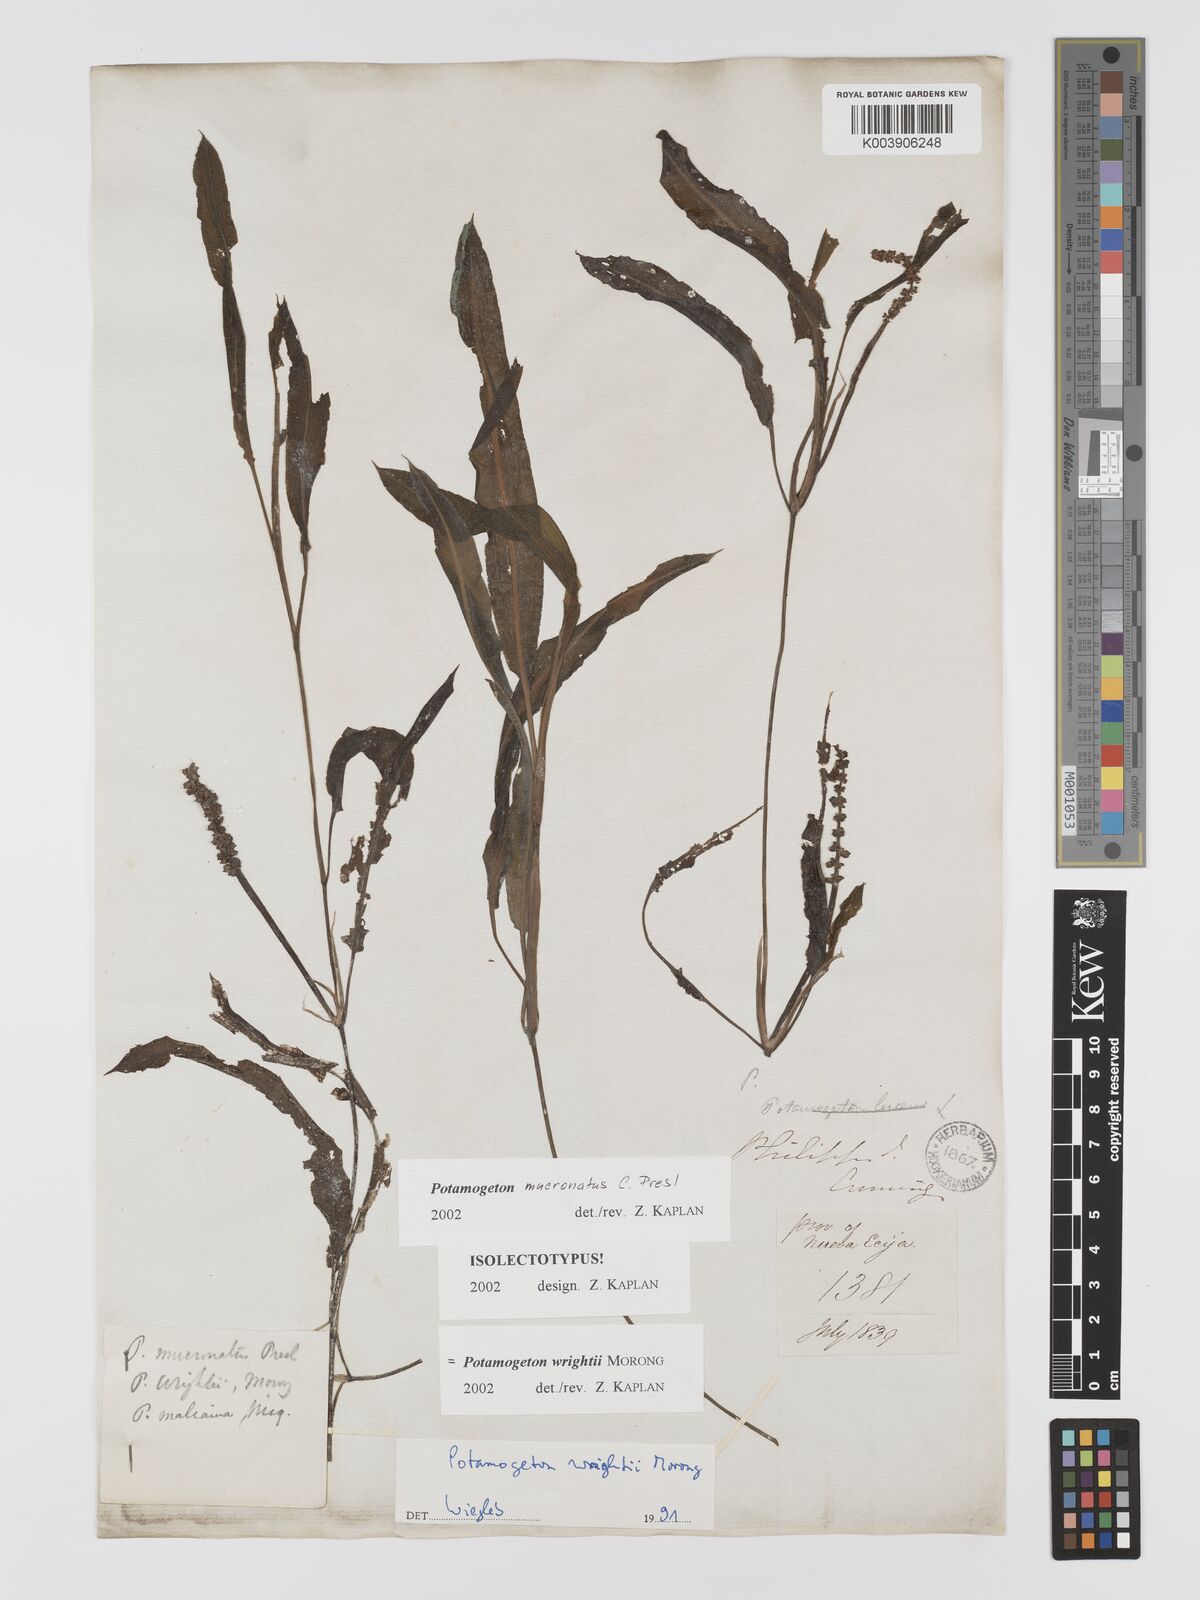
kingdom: Plantae
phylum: Tracheophyta
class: Liliopsida
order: Alismatales
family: Potamogetonaceae
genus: Potamogeton
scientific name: Potamogeton wrightii
